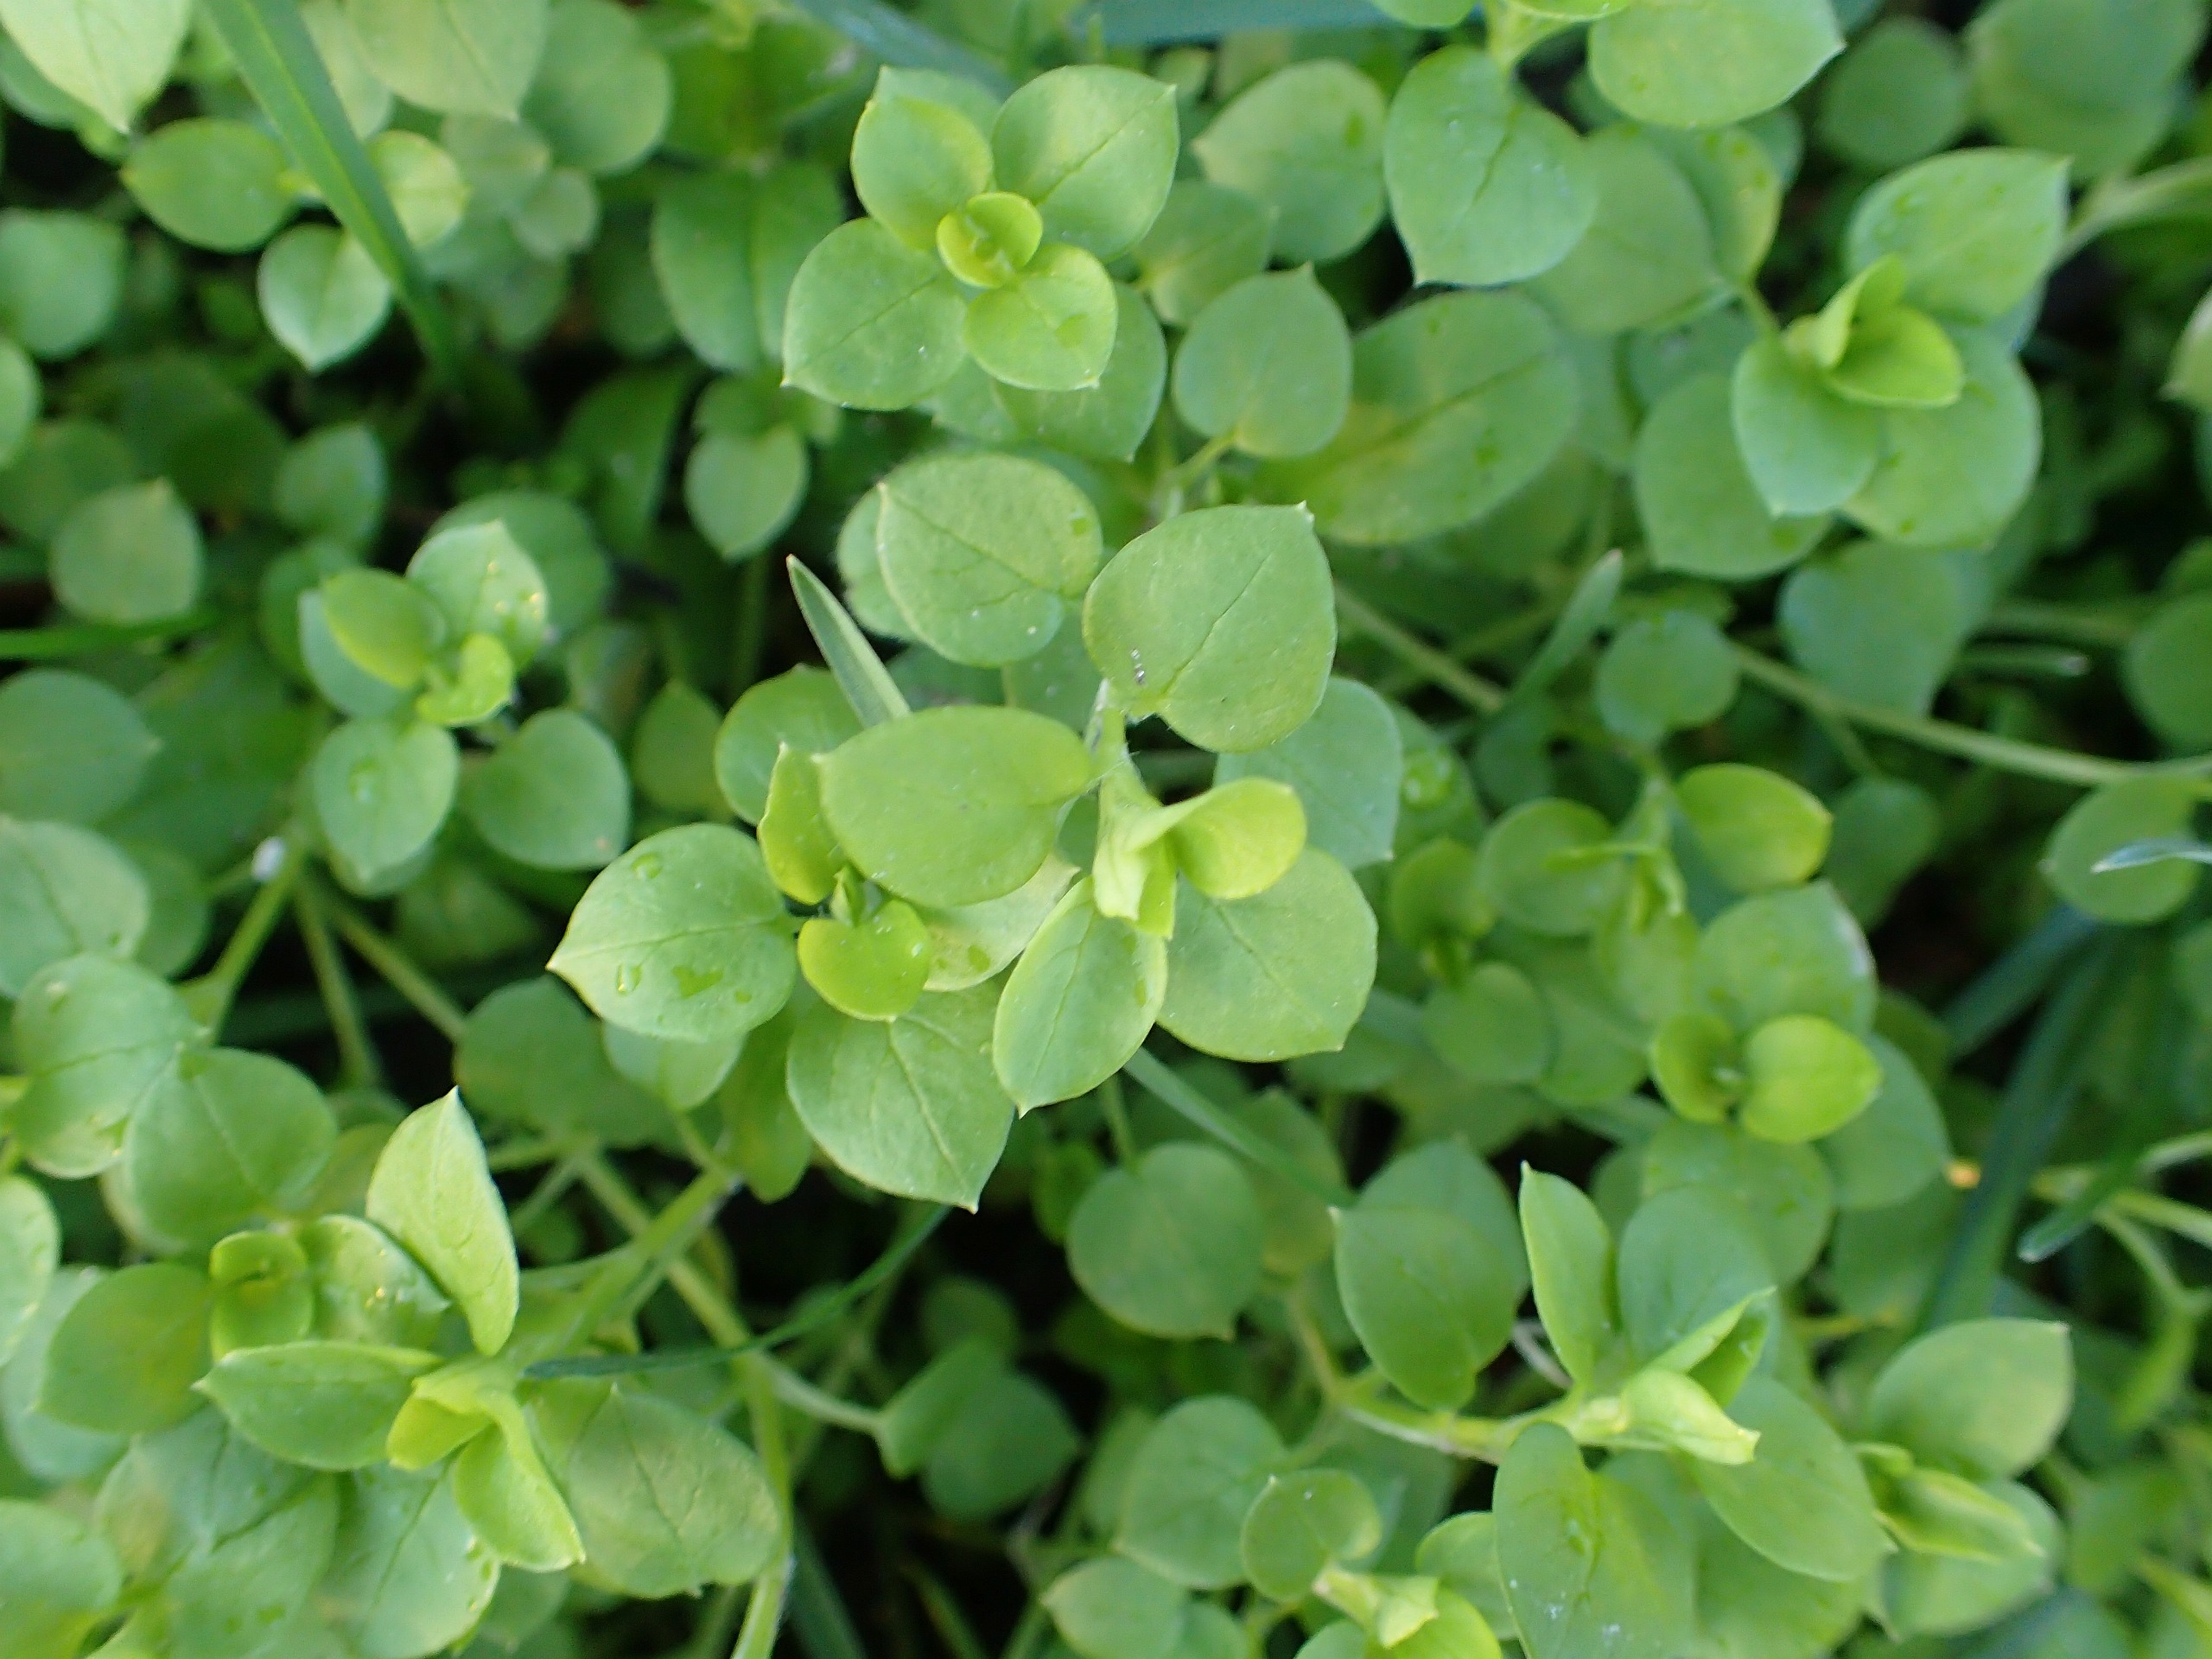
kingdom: Plantae
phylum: Tracheophyta
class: Magnoliopsida
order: Caryophyllales
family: Caryophyllaceae
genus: Stellaria
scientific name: Stellaria media
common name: Almindelig fuglegræs
